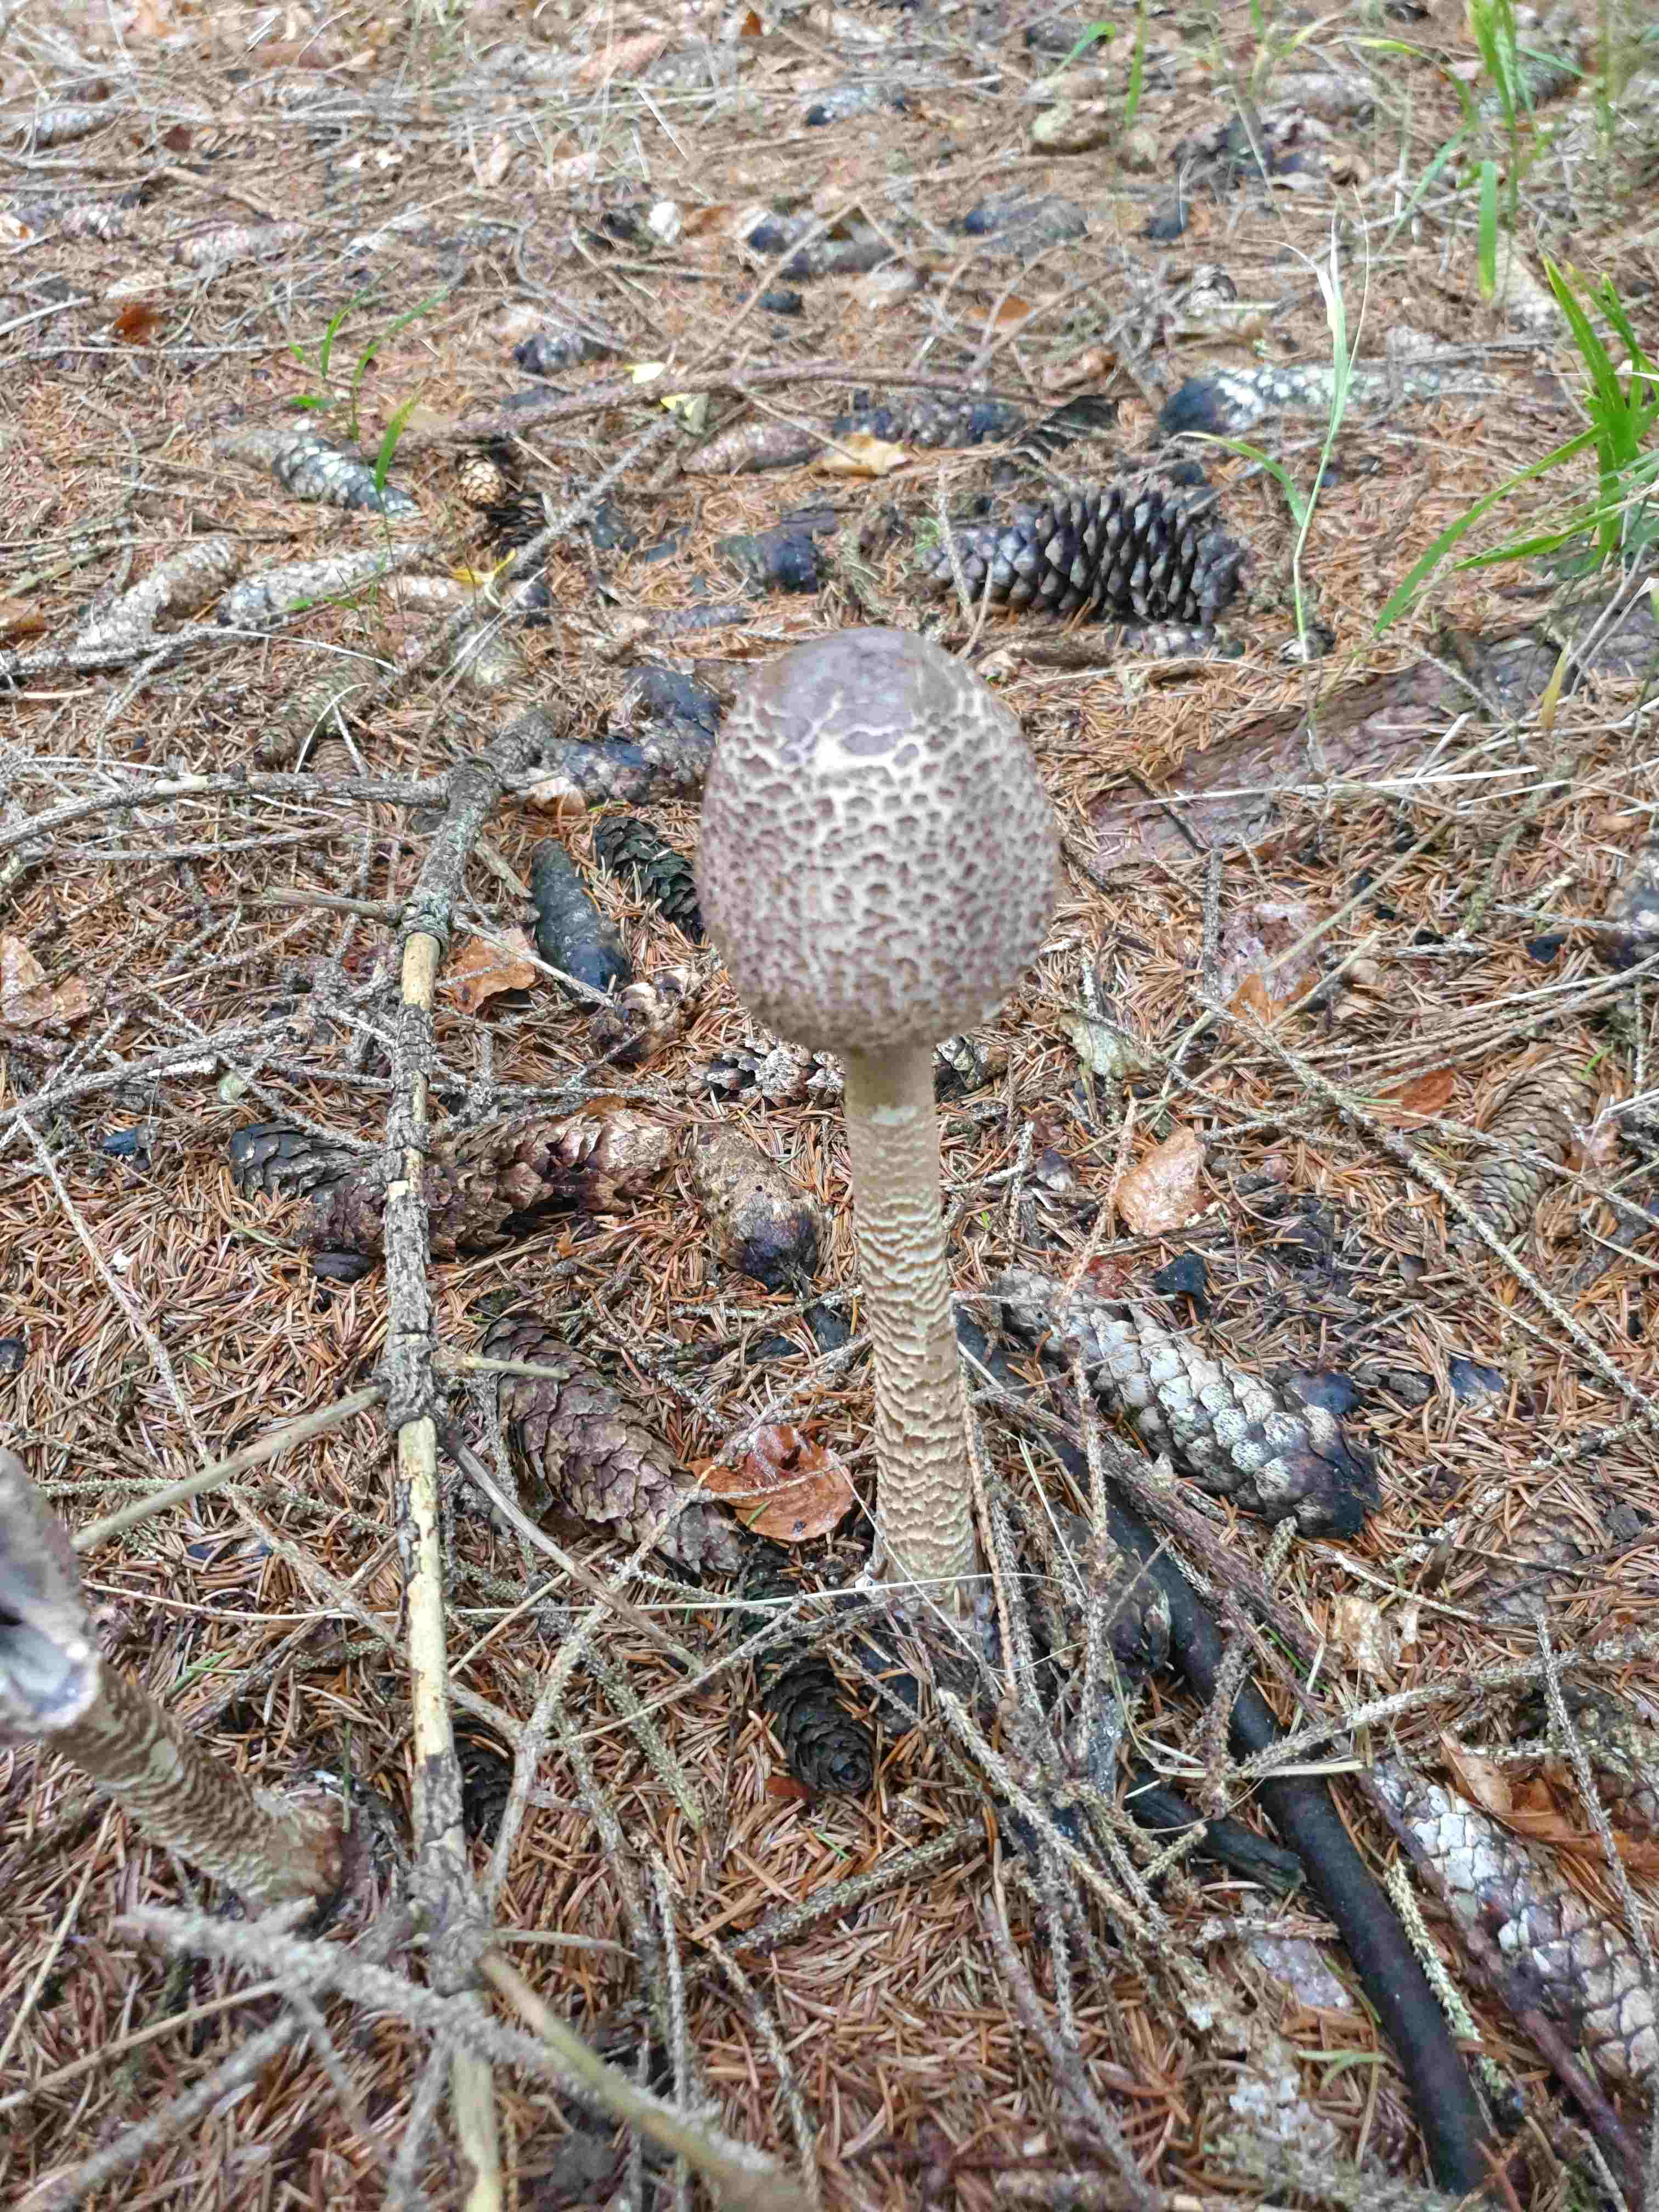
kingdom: Fungi
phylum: Basidiomycota
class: Agaricomycetes
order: Agaricales
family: Agaricaceae
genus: Macrolepiota
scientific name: Macrolepiota procera
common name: stor kæmpeparasolhat
